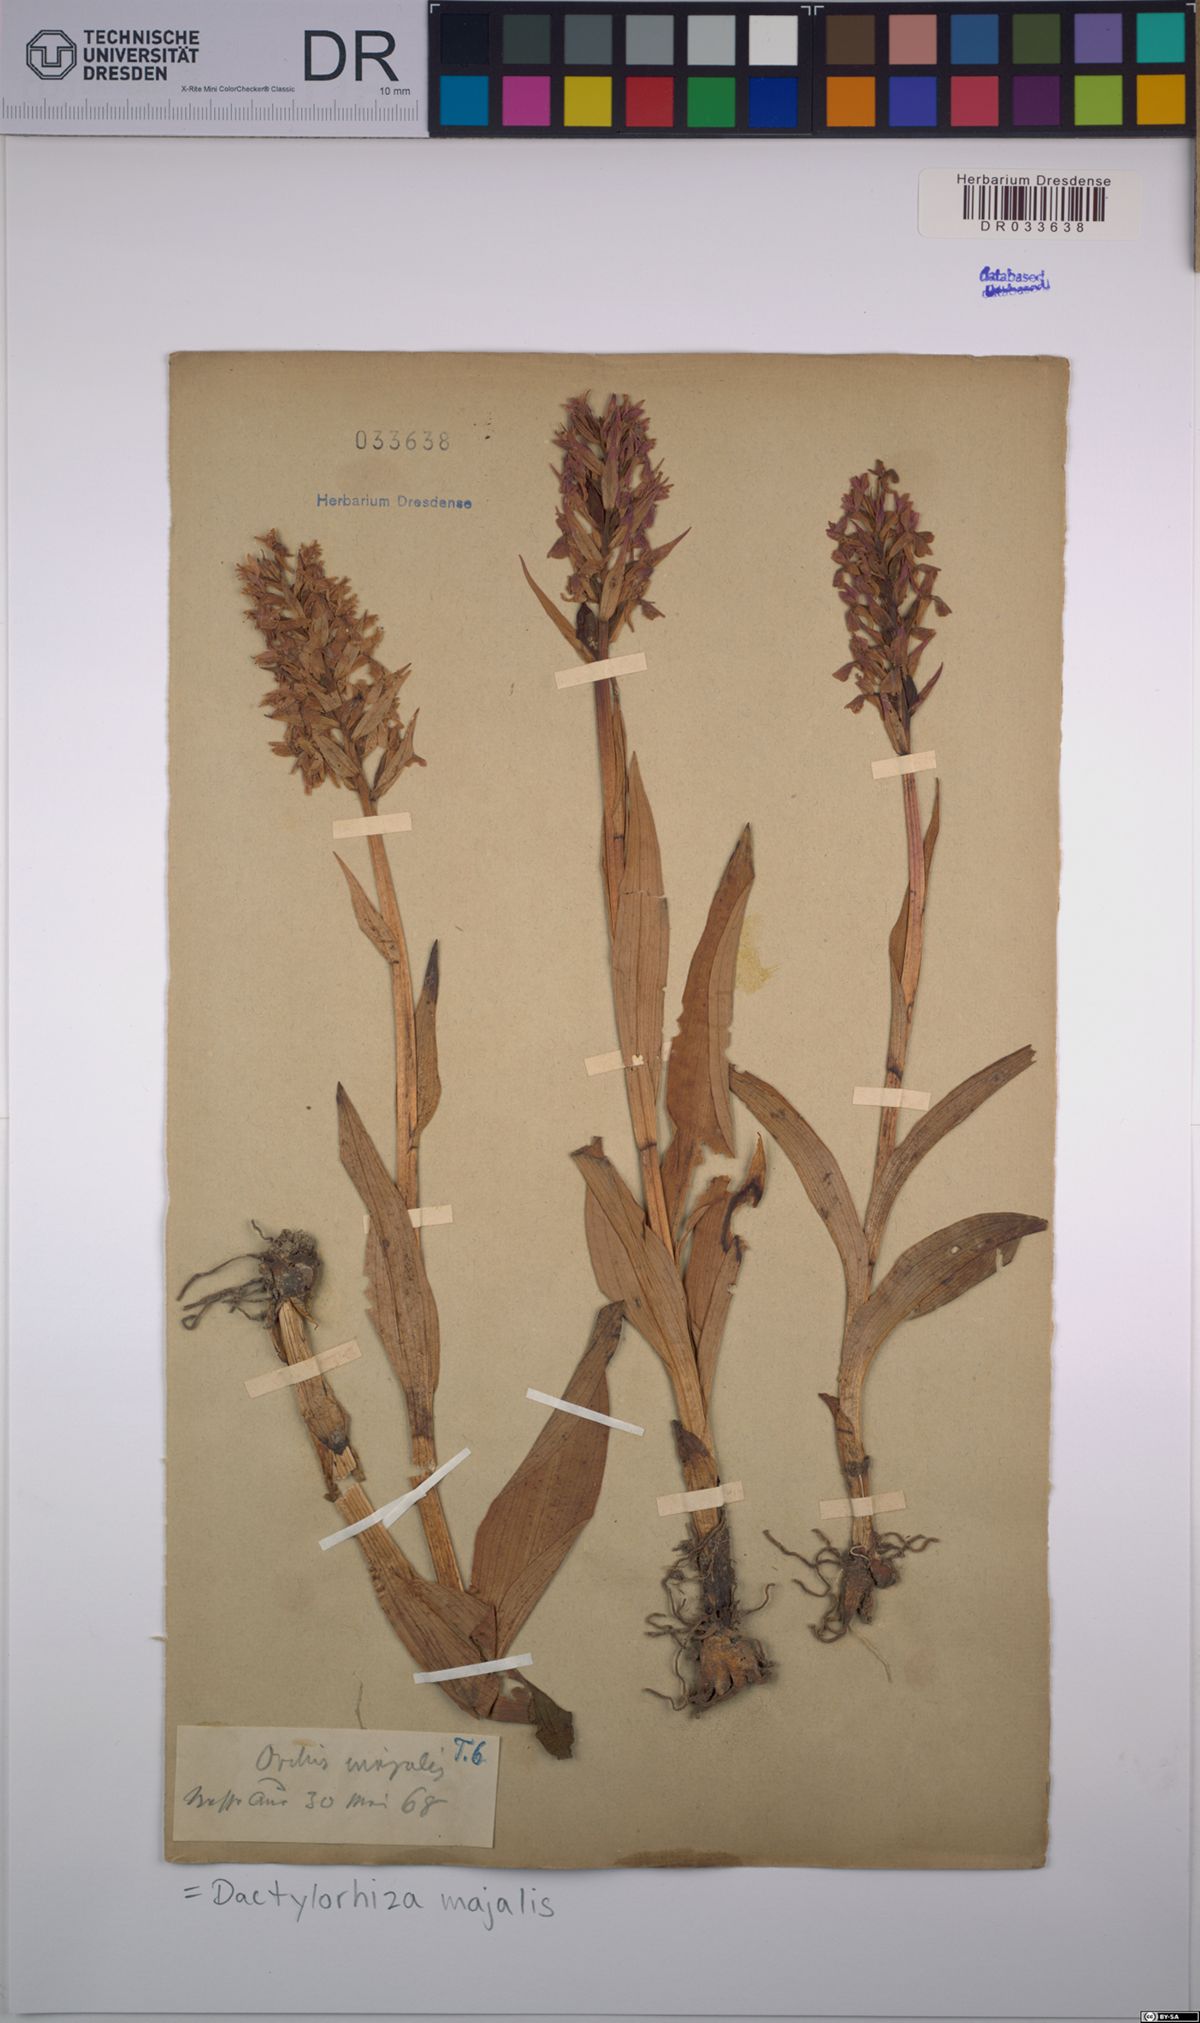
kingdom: Plantae
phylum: Tracheophyta
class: Liliopsida
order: Asparagales
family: Orchidaceae
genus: Dactylorhiza
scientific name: Dactylorhiza majalis
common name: Marsh orchid
